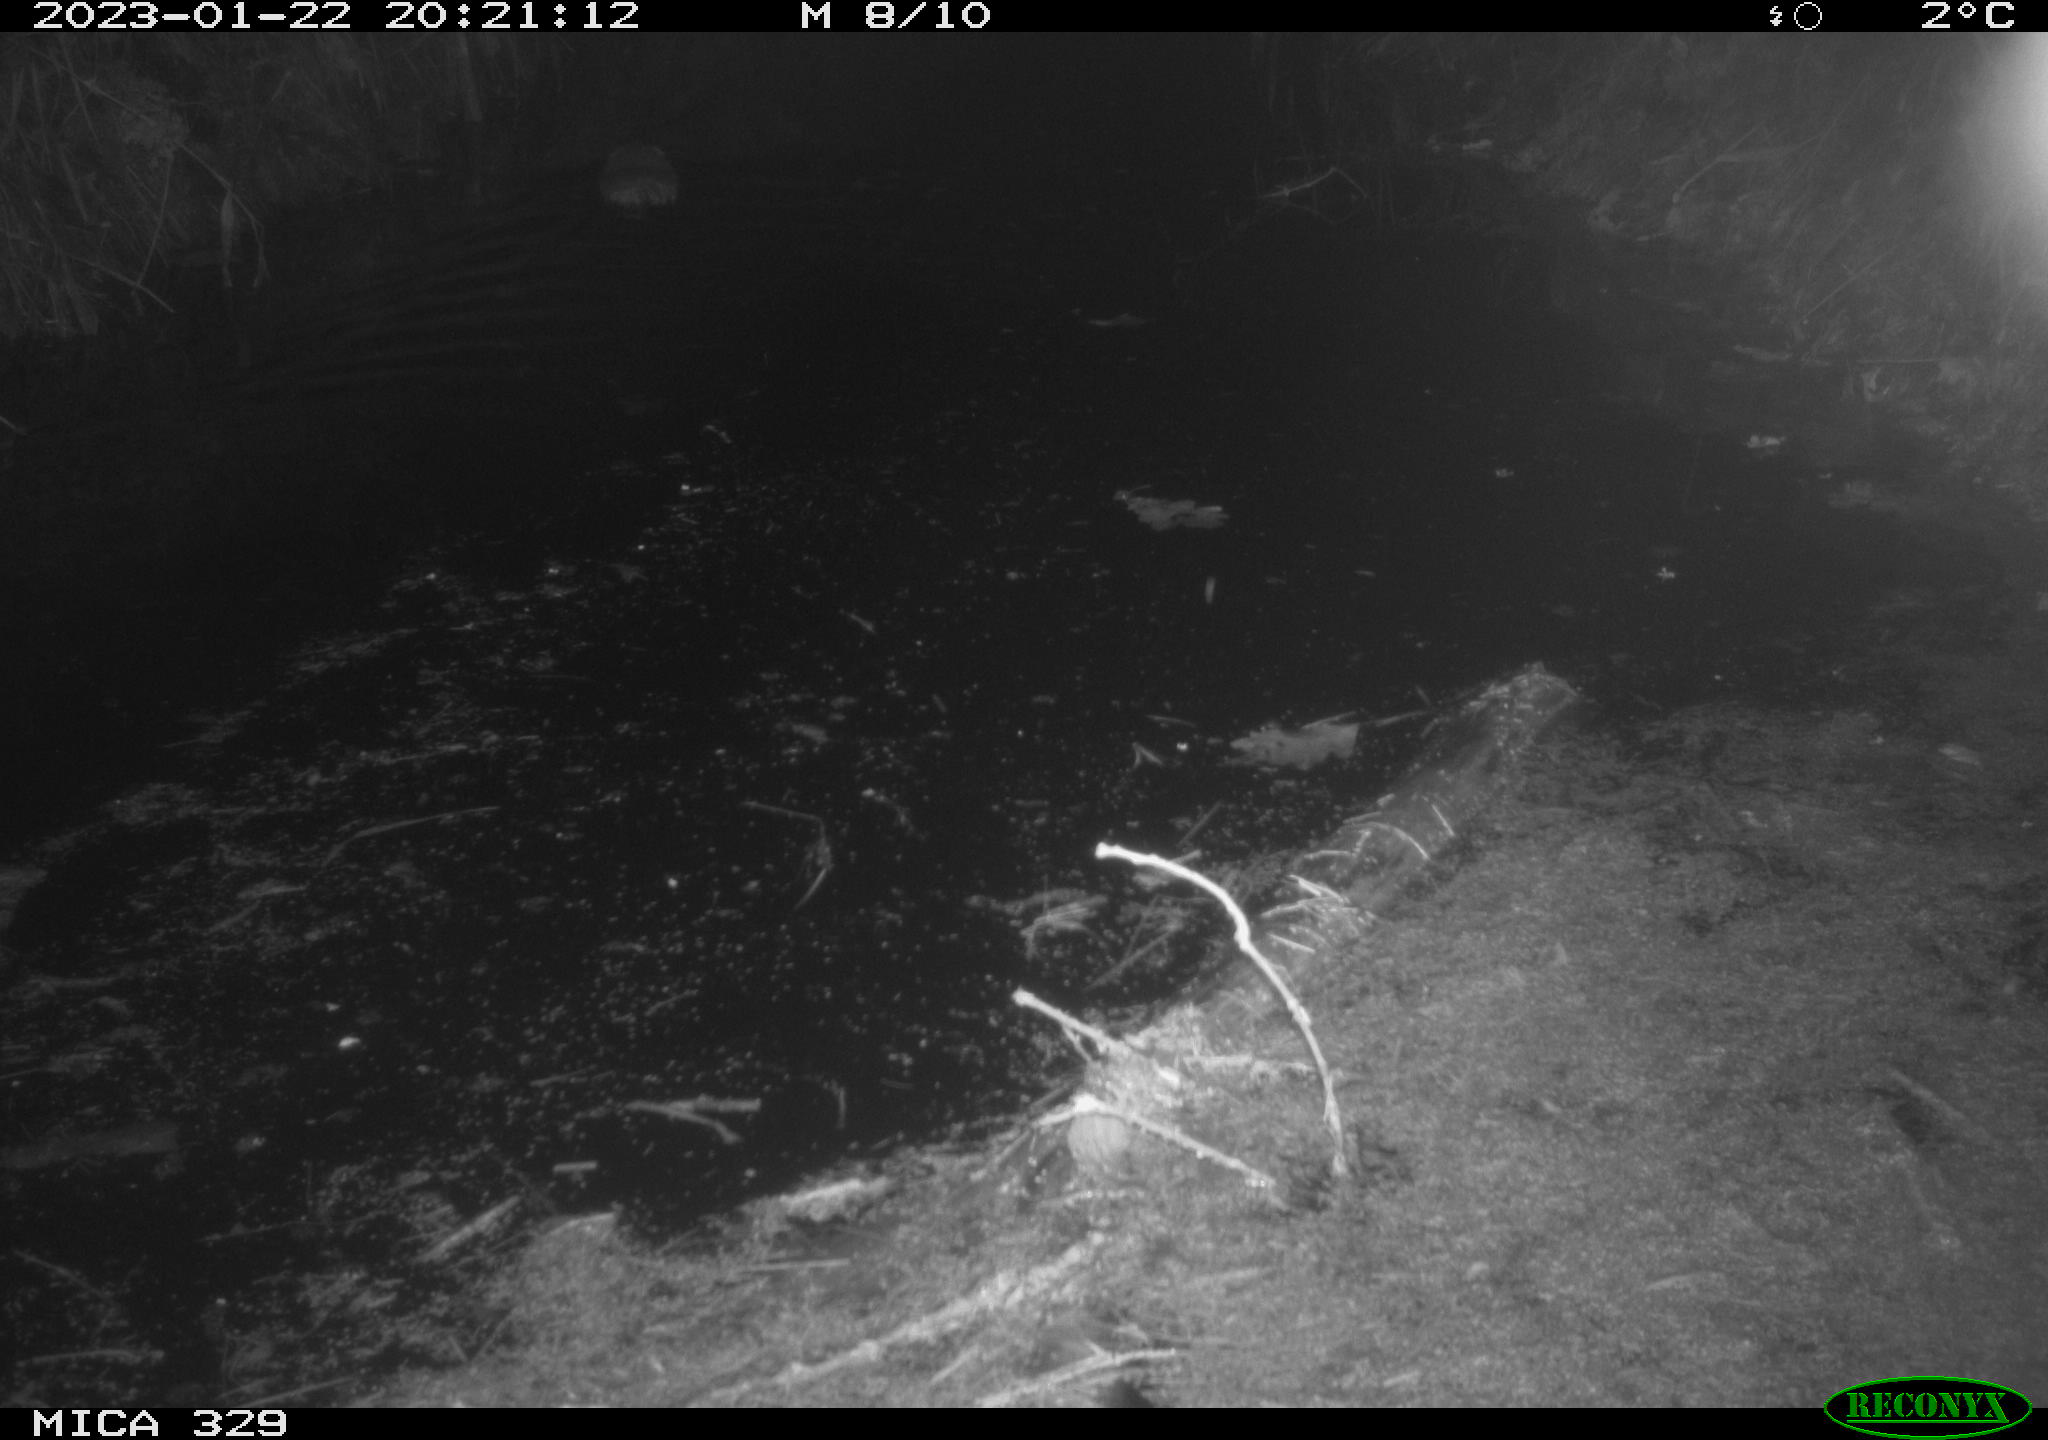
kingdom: Animalia
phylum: Chordata
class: Mammalia
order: Rodentia
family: Cricetidae
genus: Ondatra
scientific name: Ondatra zibethicus
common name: Muskrat
